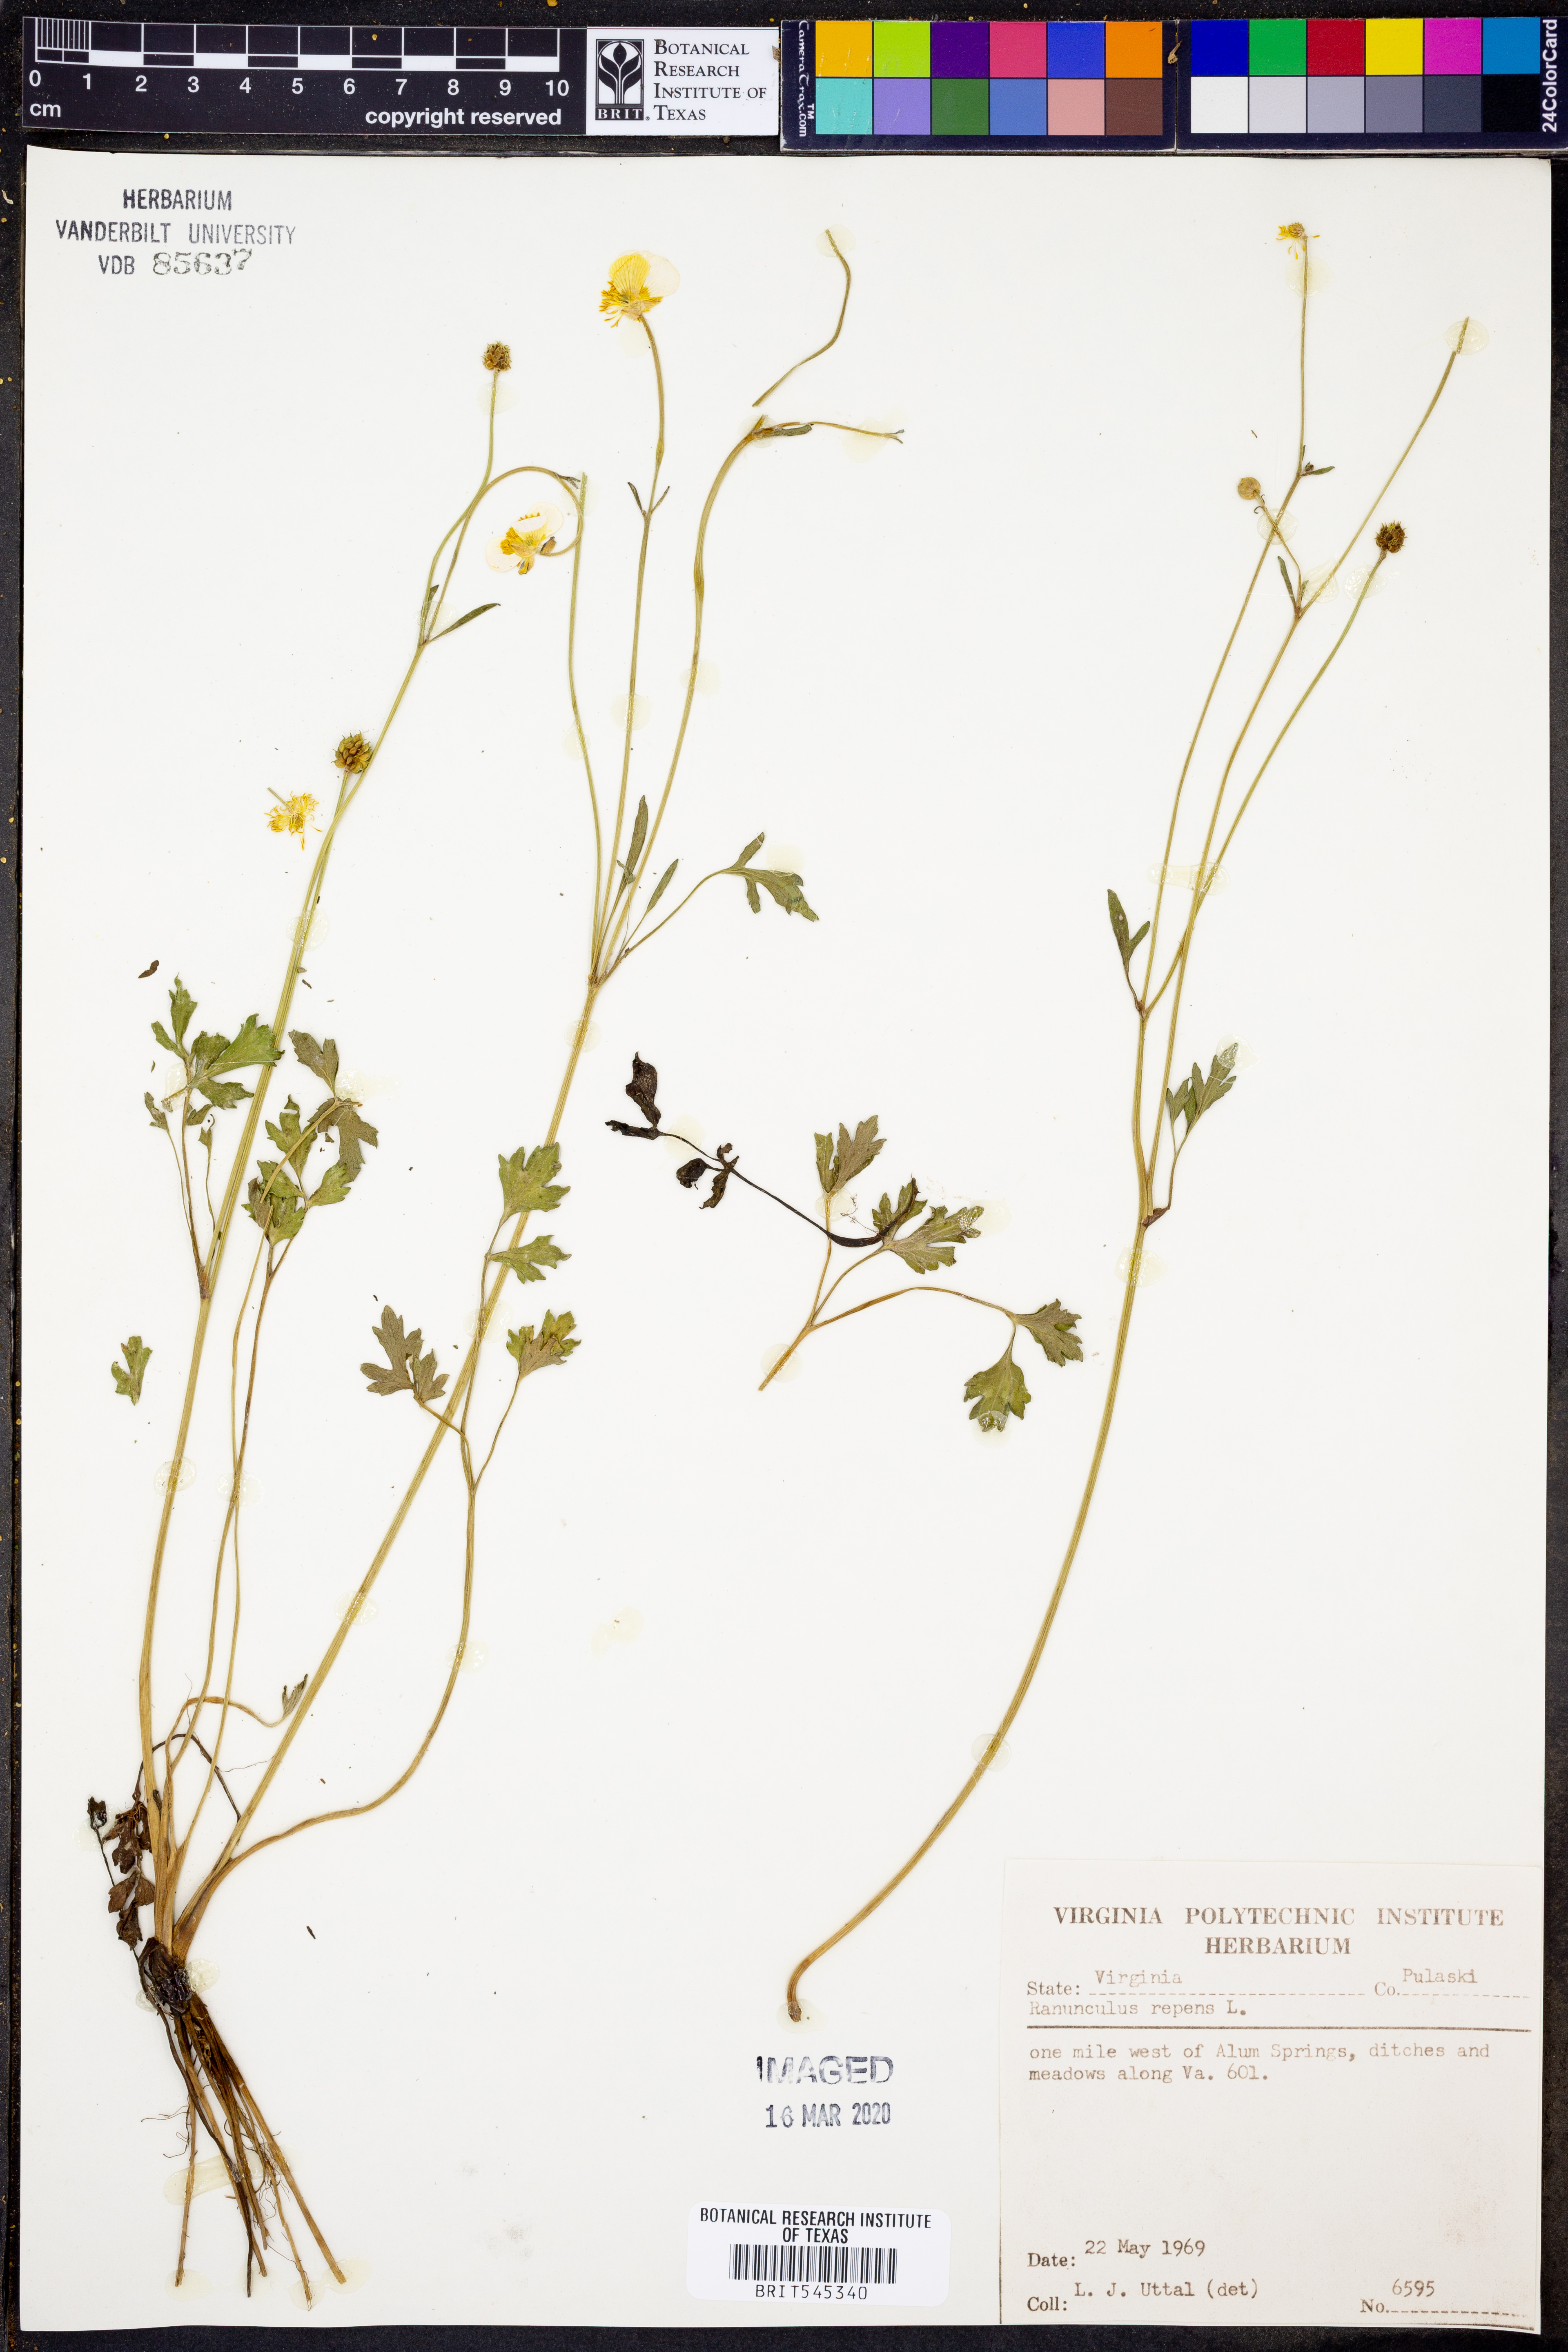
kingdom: Plantae
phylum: Tracheophyta
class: Magnoliopsida
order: Ranunculales
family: Ranunculaceae
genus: Ranunculus
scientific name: Ranunculus repens
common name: Creeping buttercup
